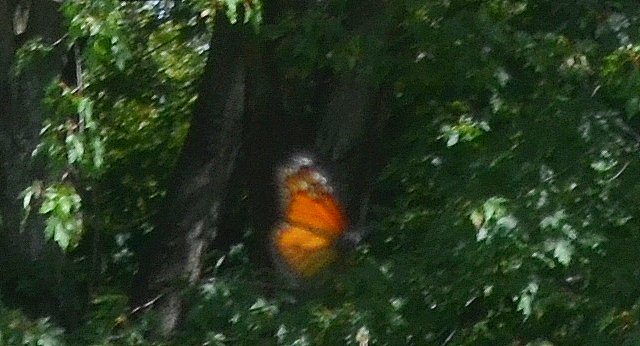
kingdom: Animalia
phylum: Arthropoda
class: Insecta
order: Lepidoptera
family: Nymphalidae
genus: Danaus
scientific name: Danaus plexippus
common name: Monarch
